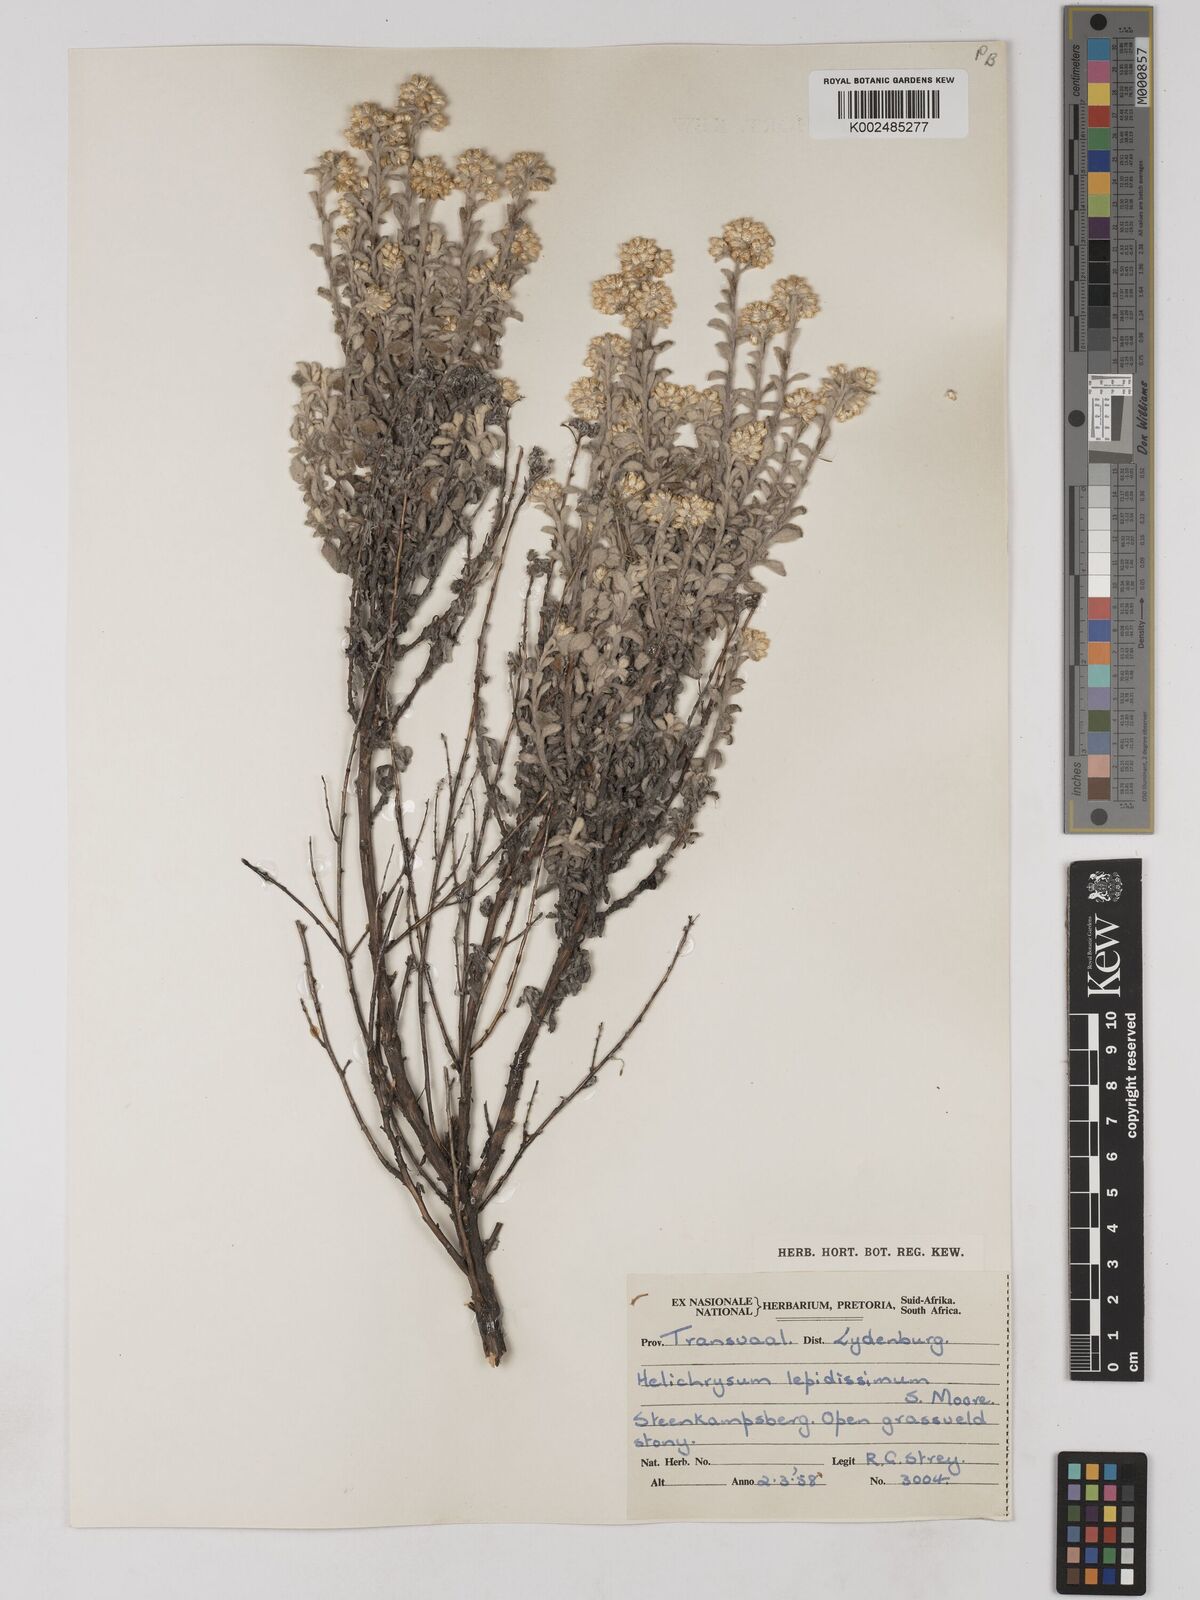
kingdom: Plantae
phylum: Tracheophyta
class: Magnoliopsida
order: Asterales
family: Asteraceae
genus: Helichrysum
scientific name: Helichrysum lepidissimum
